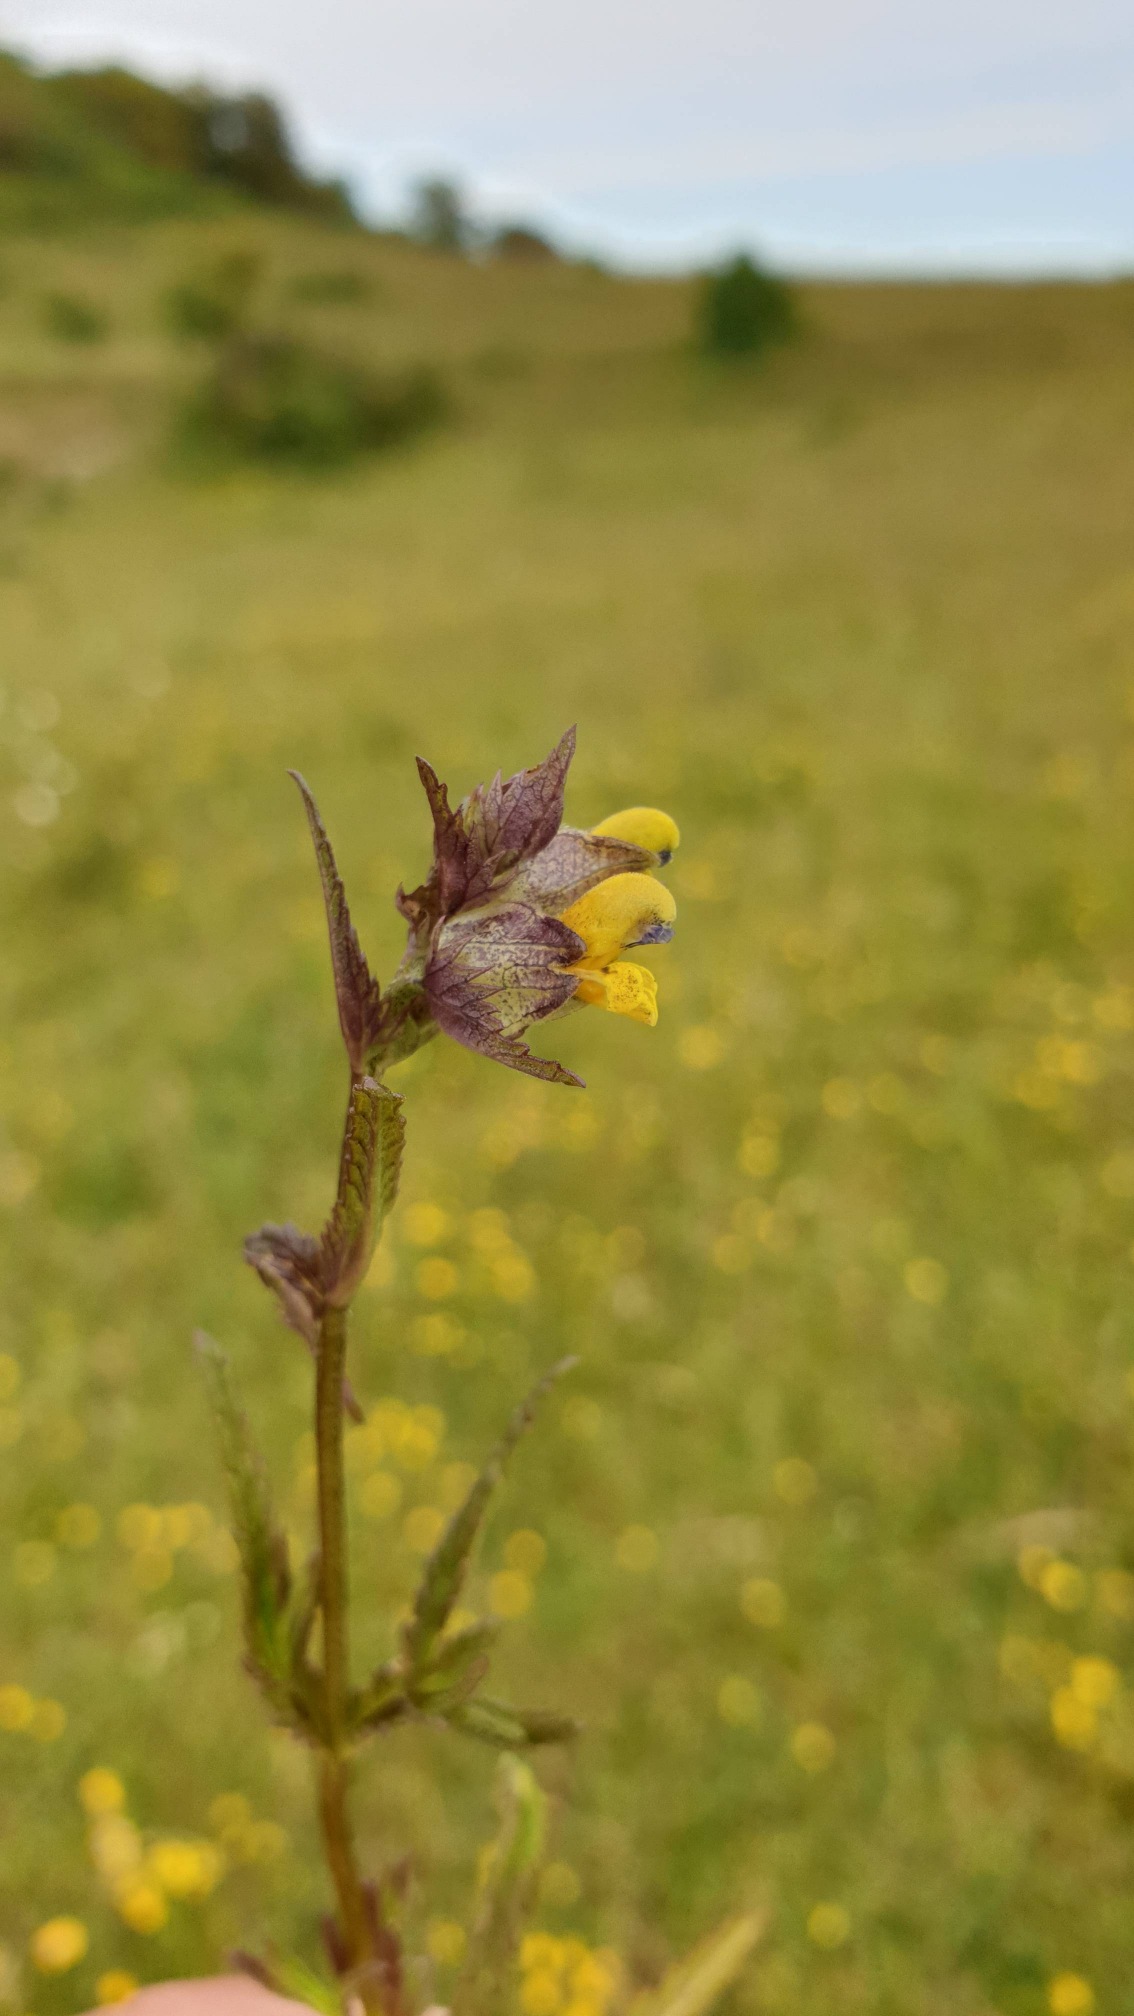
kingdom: Plantae
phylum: Tracheophyta
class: Magnoliopsida
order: Lamiales
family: Orobanchaceae
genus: Rhinanthus
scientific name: Rhinanthus minor
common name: Liden skjaller
